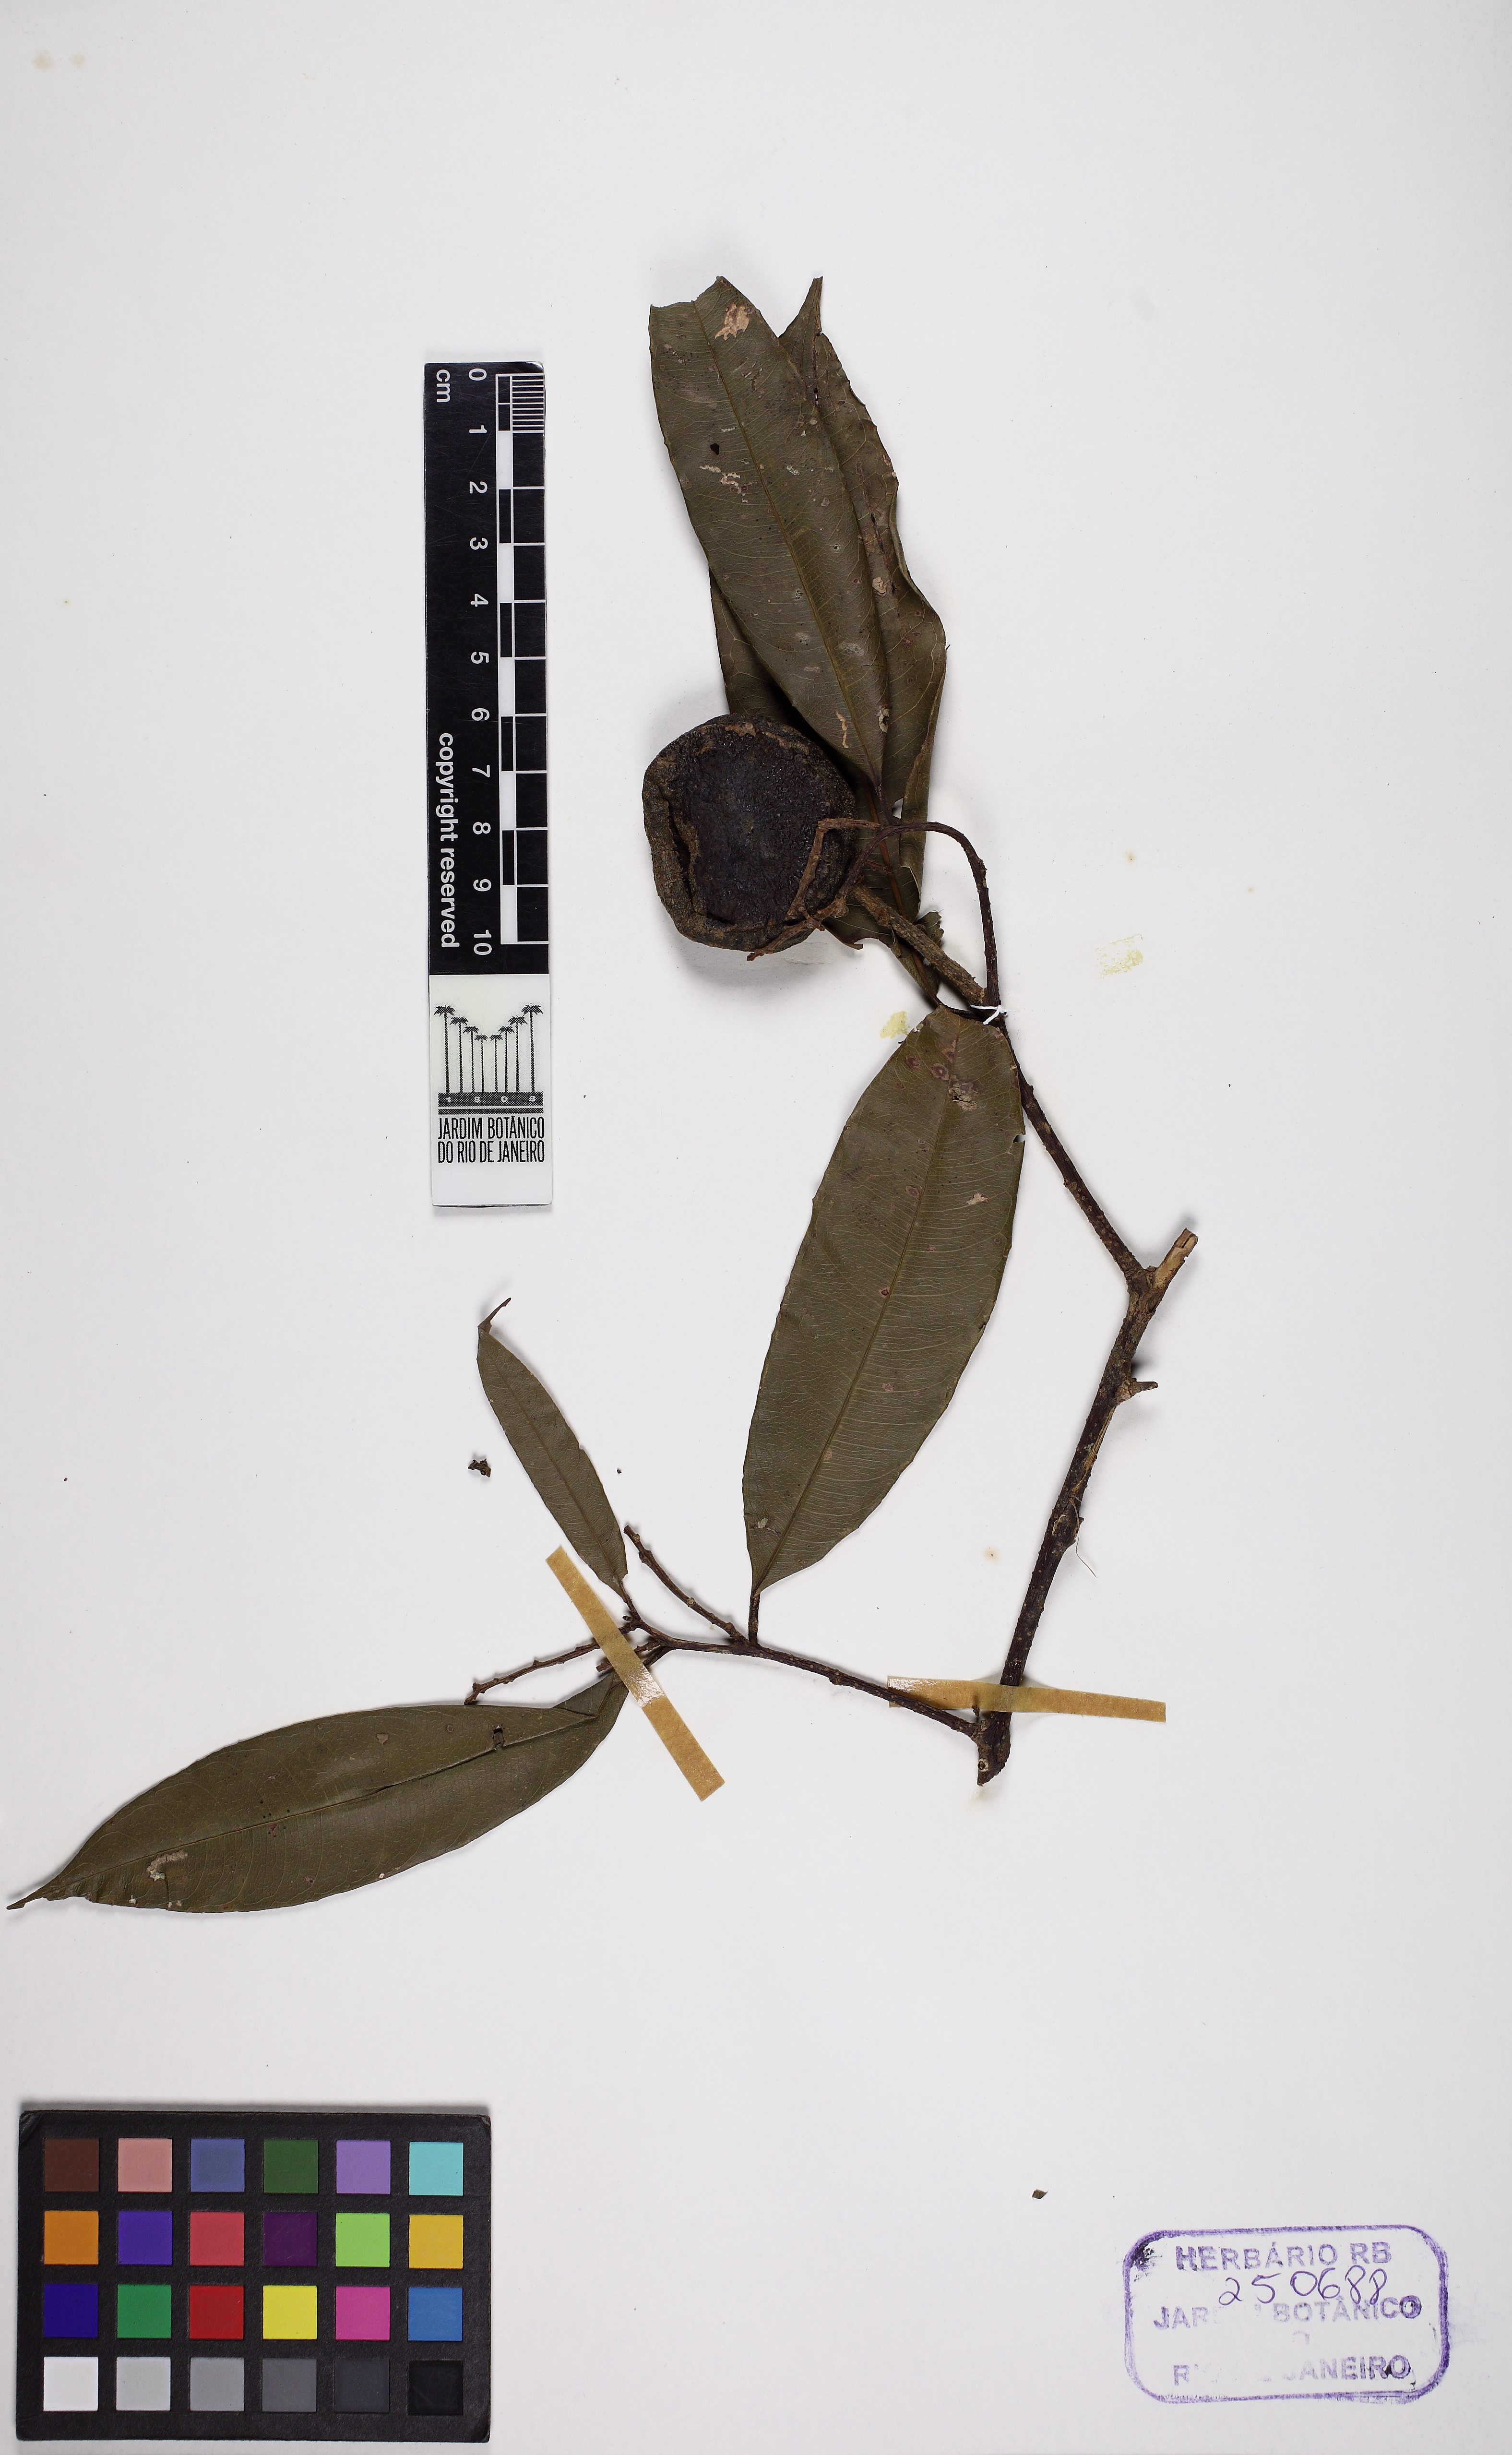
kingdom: Plantae
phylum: Tracheophyta
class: Magnoliopsida
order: Ericales
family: Lecythidaceae
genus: Eschweilera
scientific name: Eschweilera coriacea
